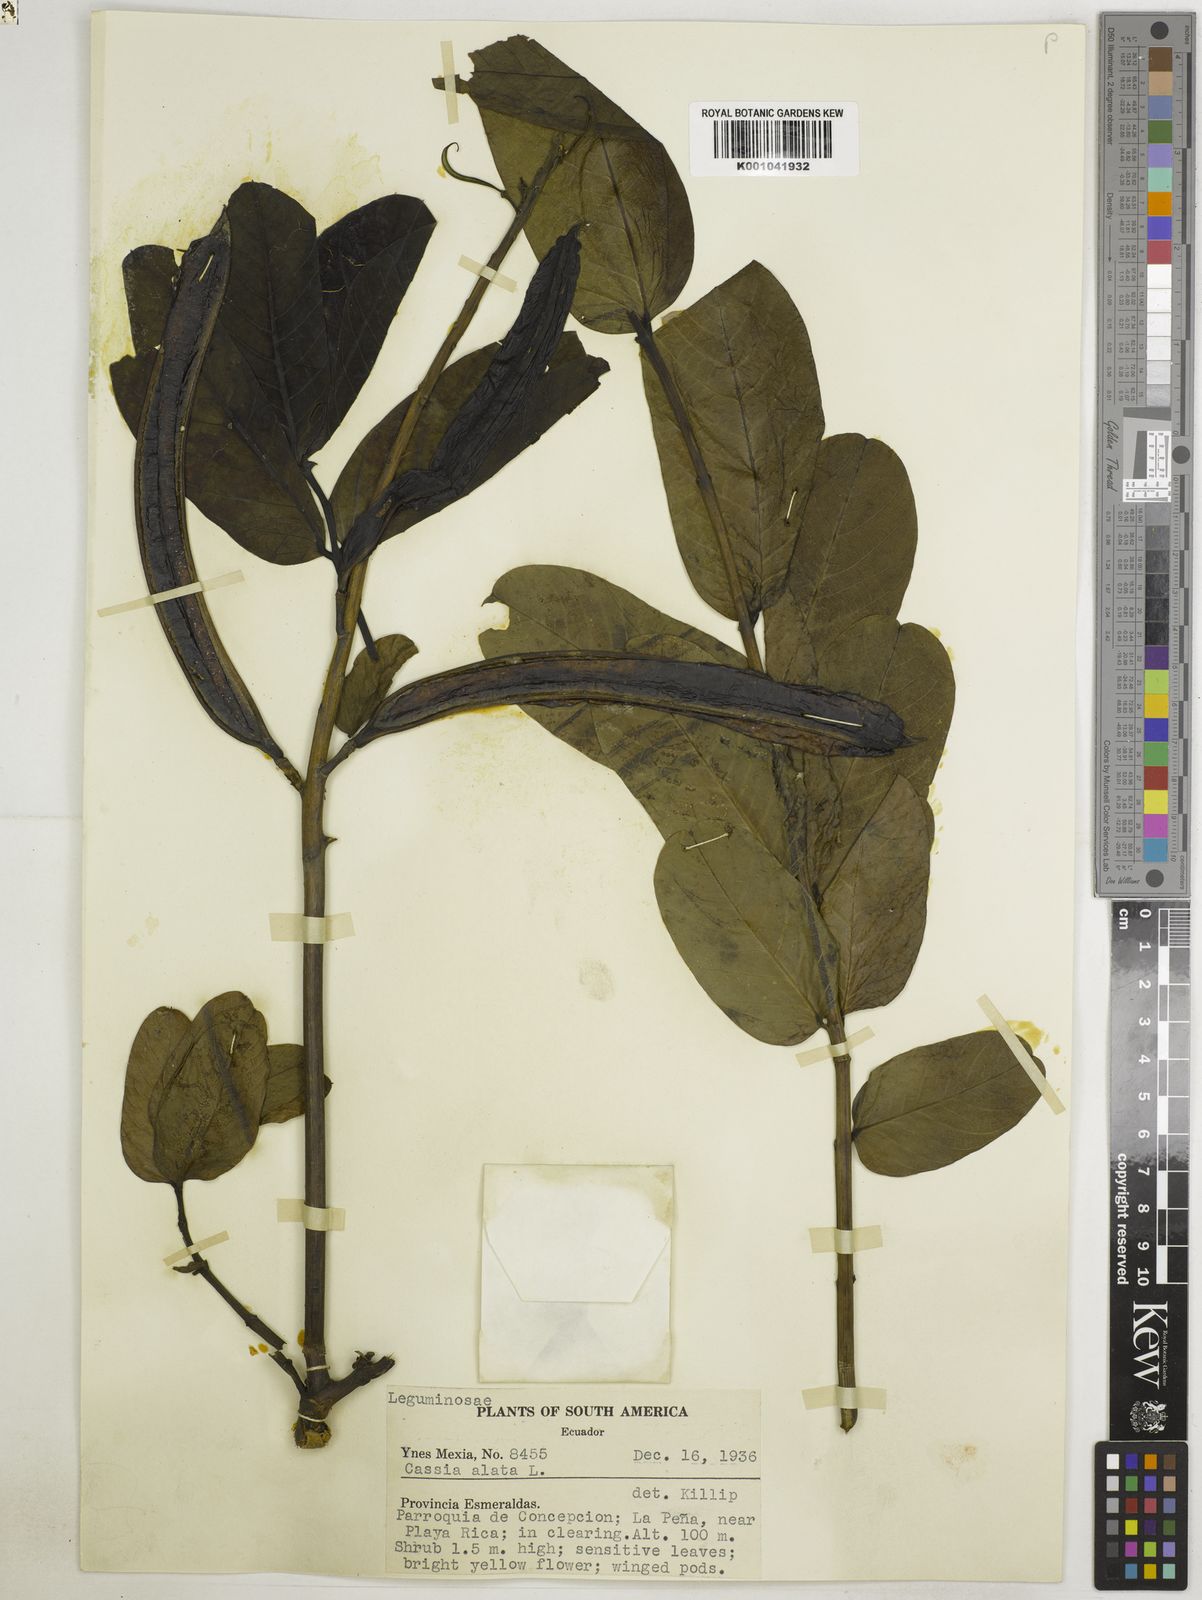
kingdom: Plantae
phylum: Tracheophyta
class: Magnoliopsida
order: Fabales
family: Fabaceae
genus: Senna
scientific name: Senna alata
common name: Emperor's candlesticks
